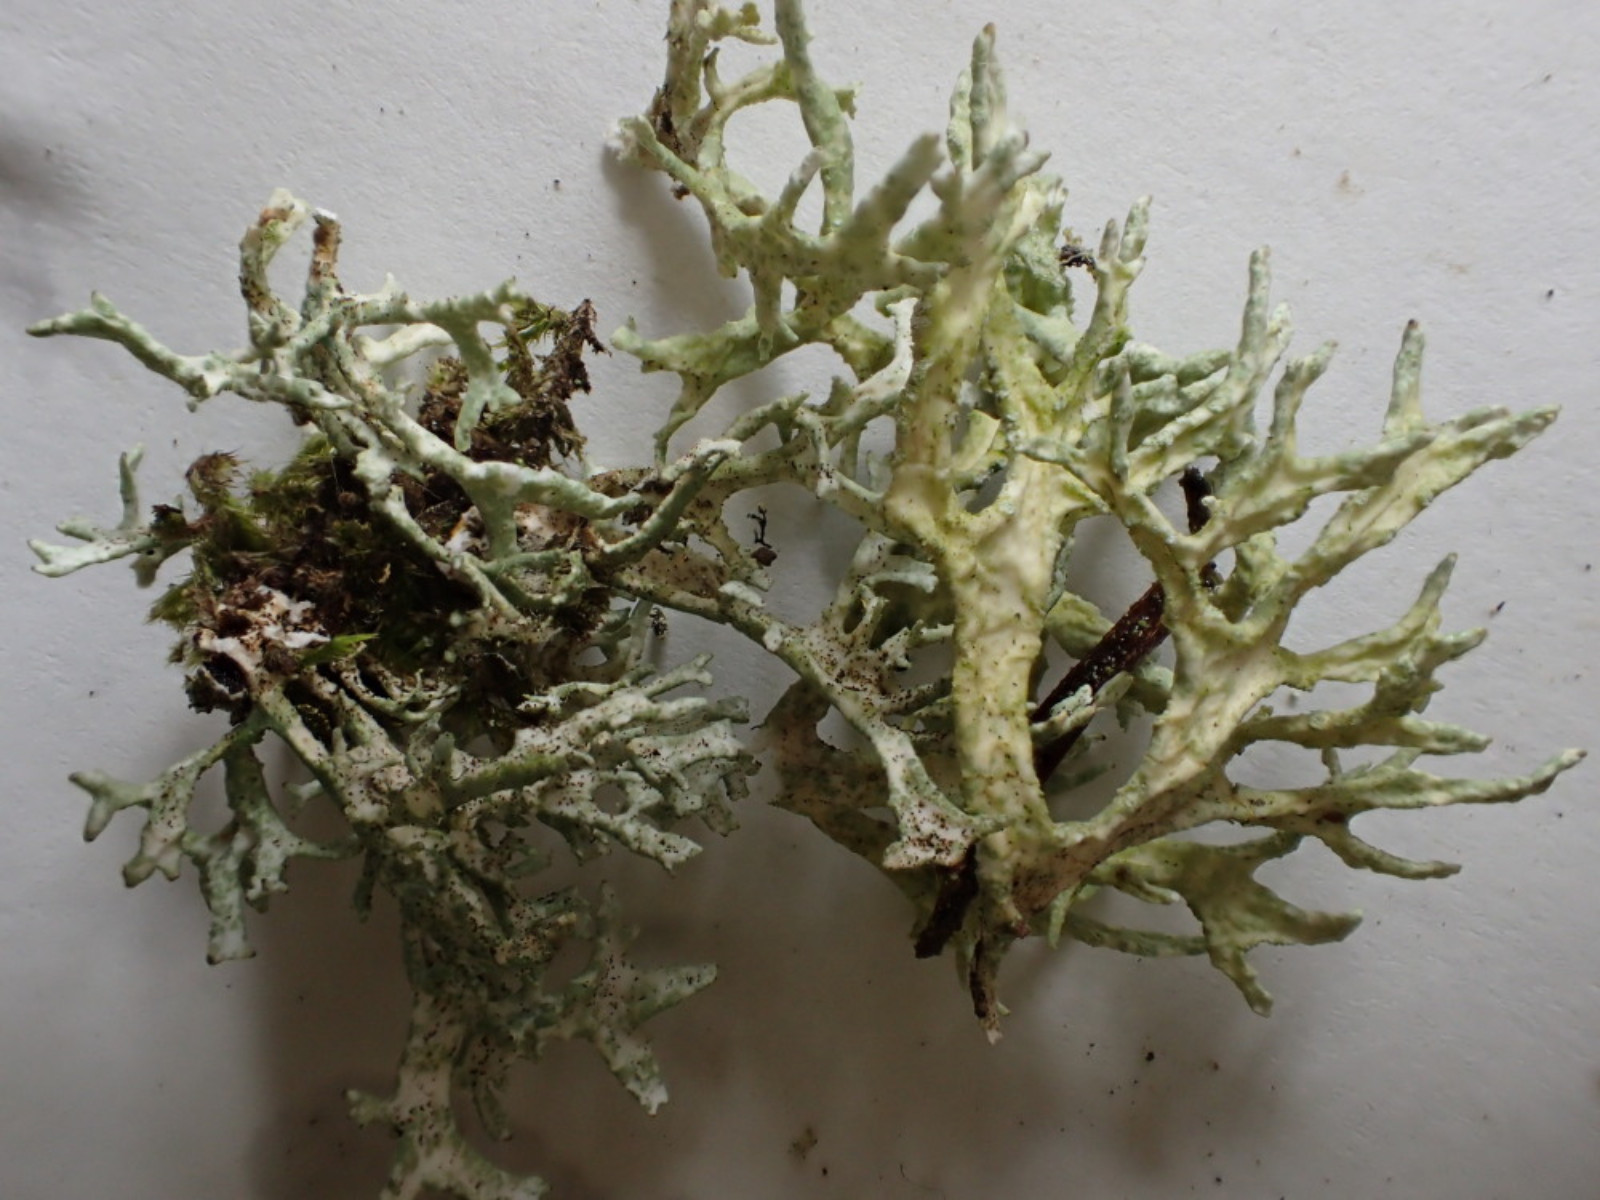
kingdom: Fungi
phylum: Ascomycota
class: Lecanoromycetes
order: Lecanorales
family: Parmeliaceae
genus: Evernia
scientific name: Evernia prunastri
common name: almindelig slåenlav
